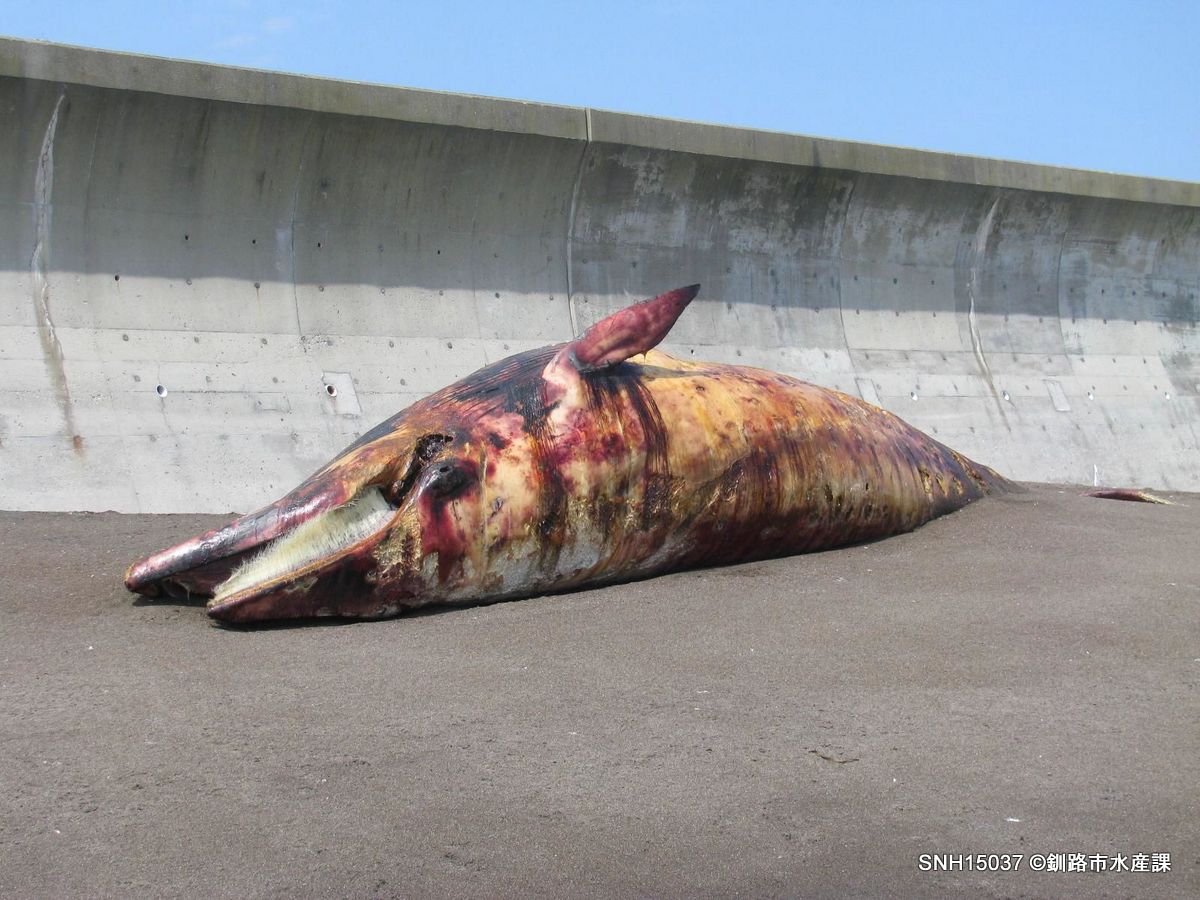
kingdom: Animalia
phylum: Chordata
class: Mammalia
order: Cetacea
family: Balaenopteridae
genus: Balaenoptera
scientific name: Balaenoptera acutorostrata
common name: Minke whale
